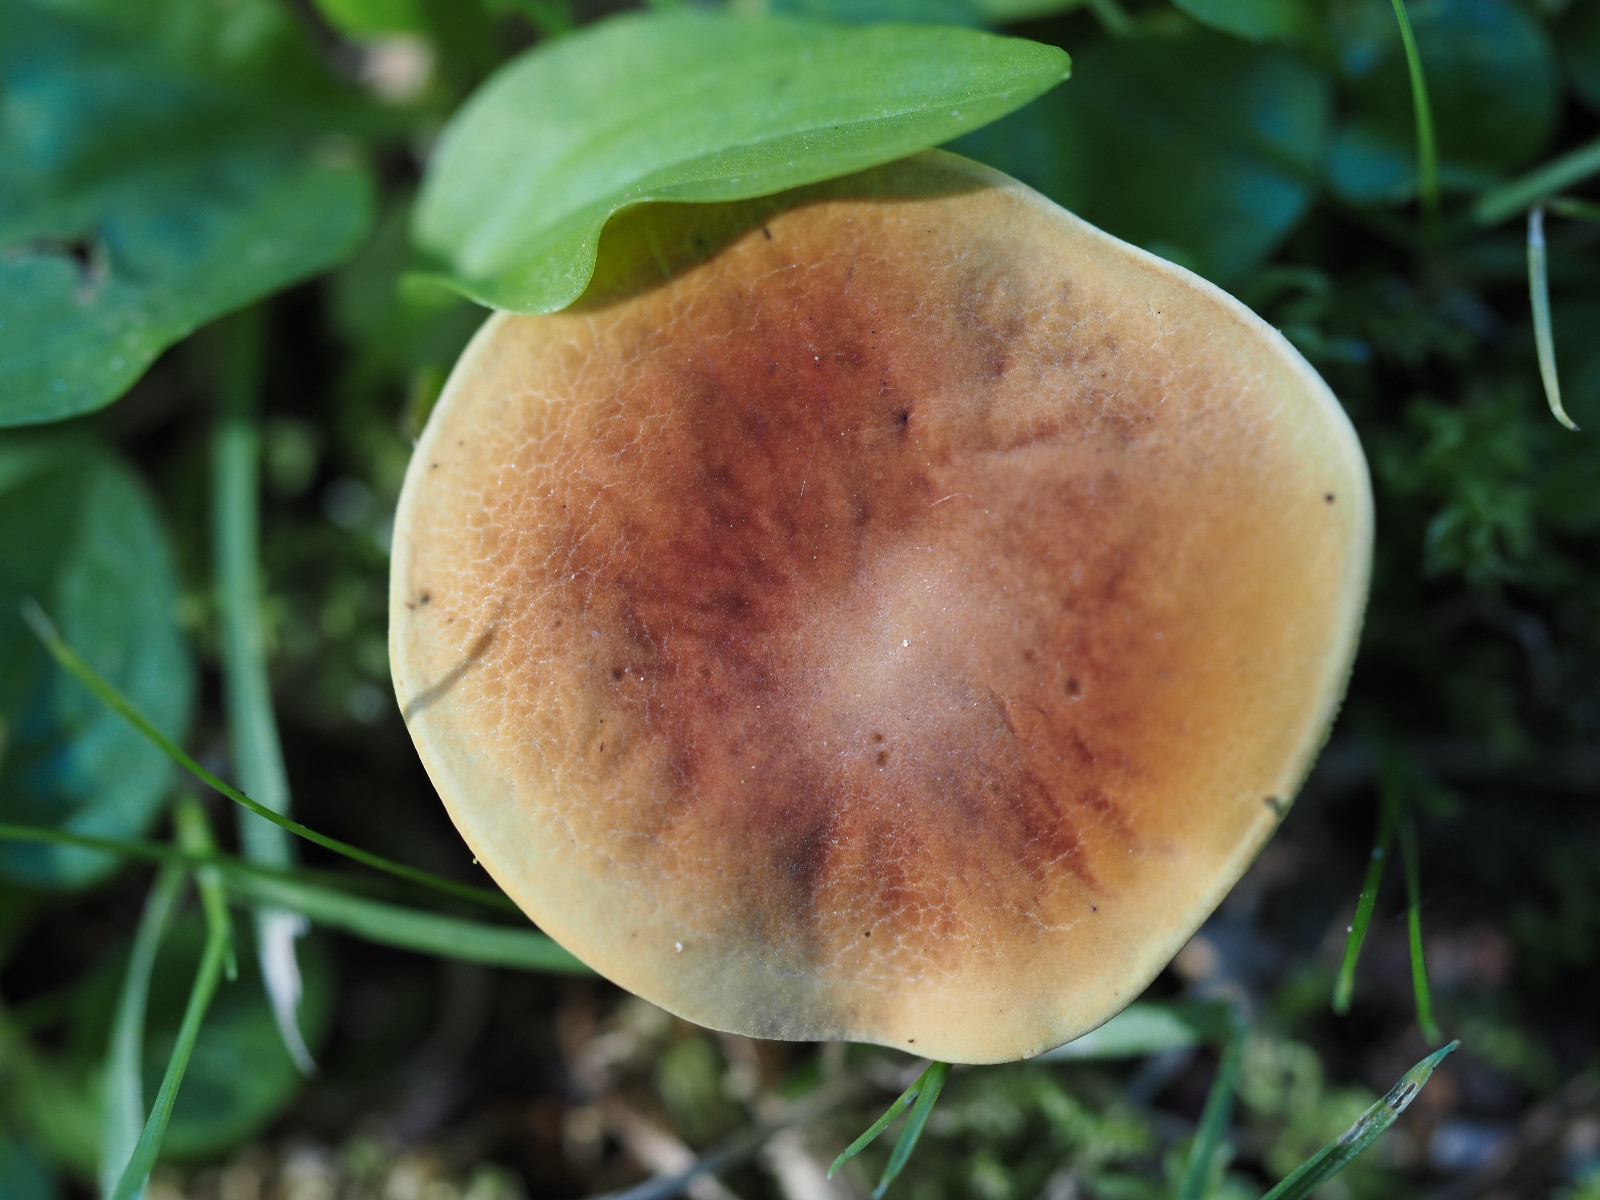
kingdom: Fungi
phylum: Basidiomycota
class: Agaricomycetes
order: Boletales
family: Boletaceae
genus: Hortiboletus
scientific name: Hortiboletus
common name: dværgrørhat
